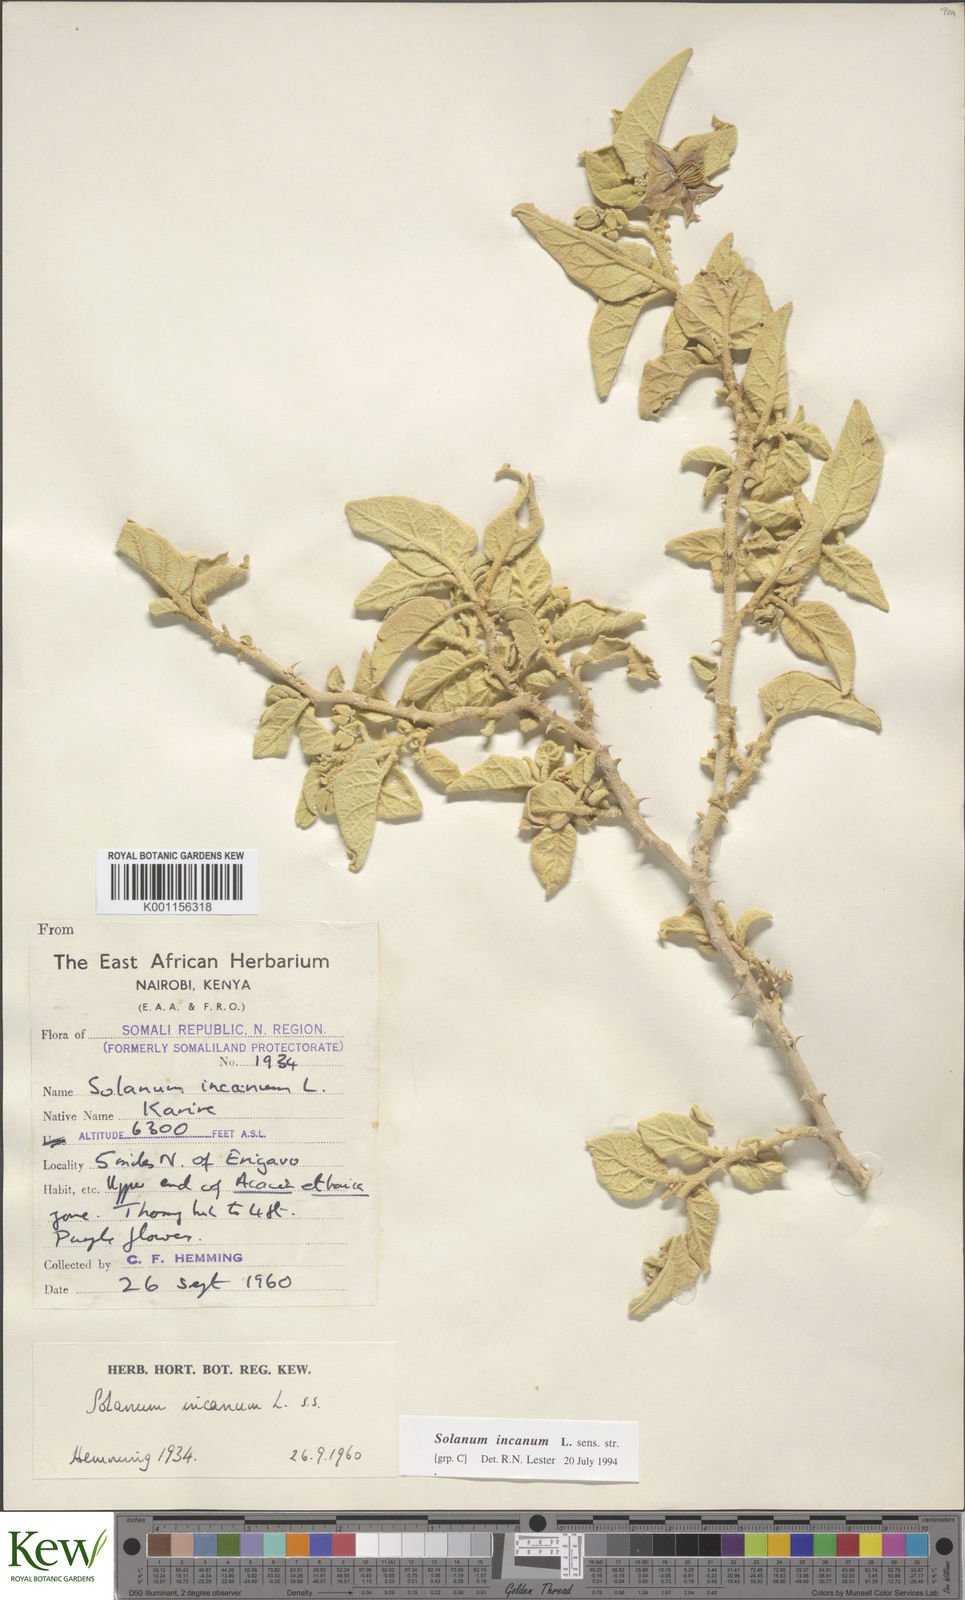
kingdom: Plantae
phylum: Tracheophyta
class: Magnoliopsida
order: Solanales
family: Solanaceae
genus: Solanum
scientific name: Solanum incanum
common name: Bitter apple
